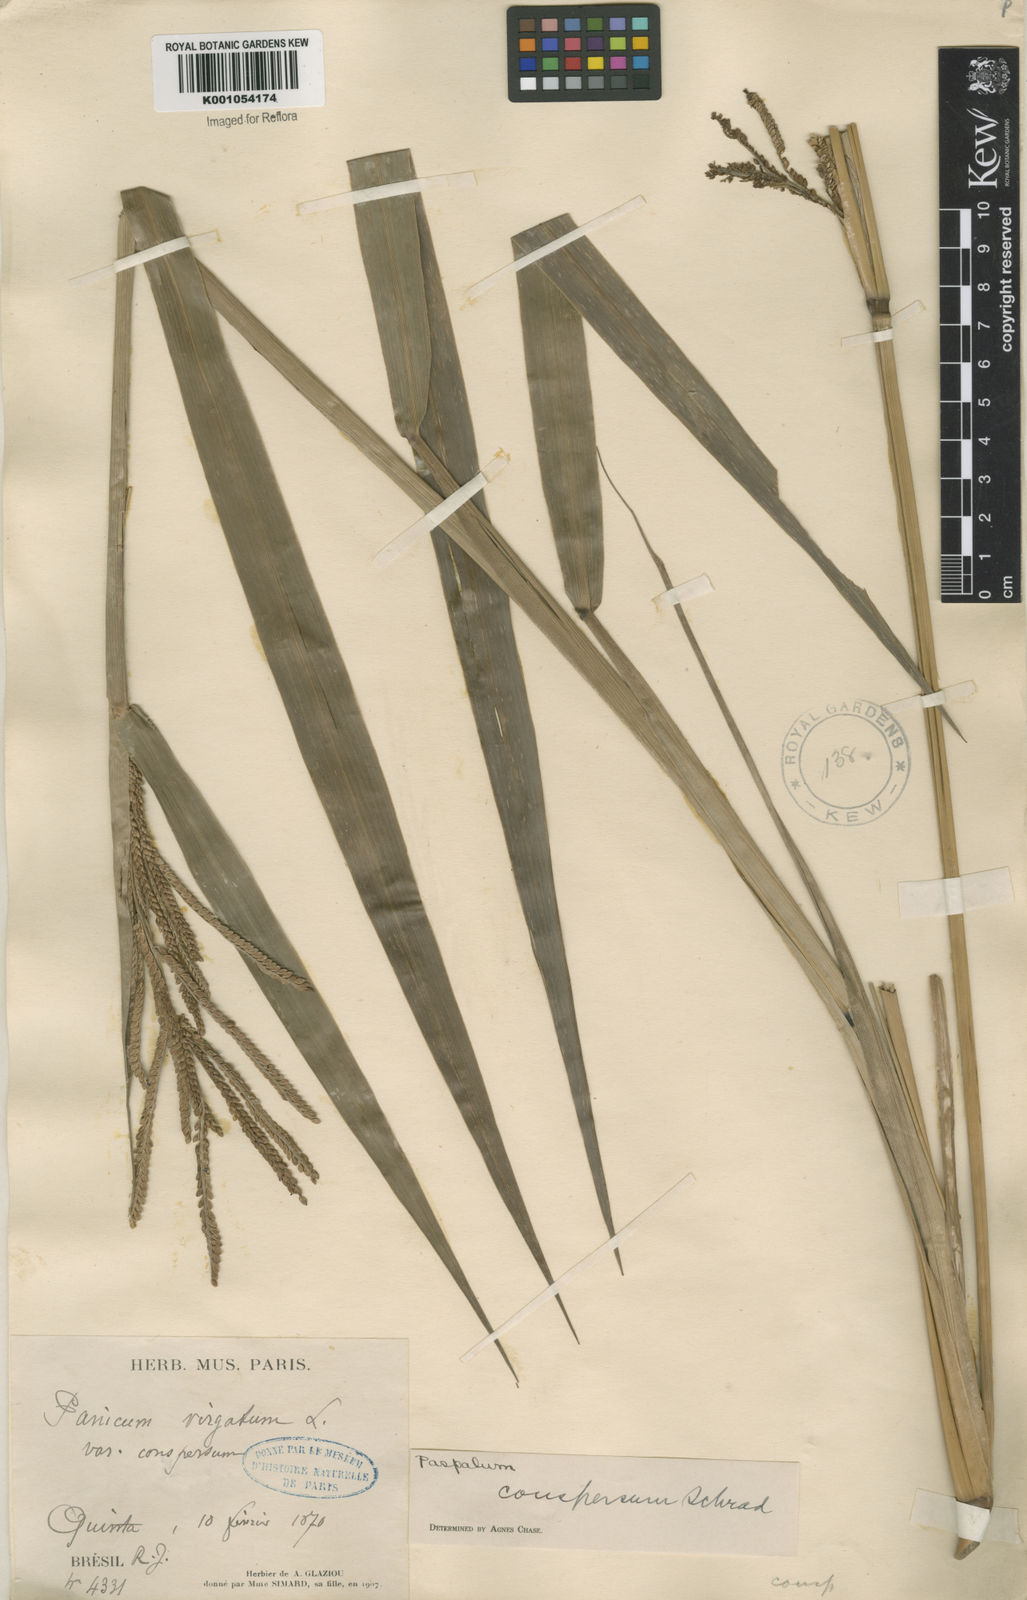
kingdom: Plantae
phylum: Tracheophyta
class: Liliopsida
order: Poales
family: Poaceae
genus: Paspalum
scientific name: Paspalum conspersum
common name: Scattered paspalum
